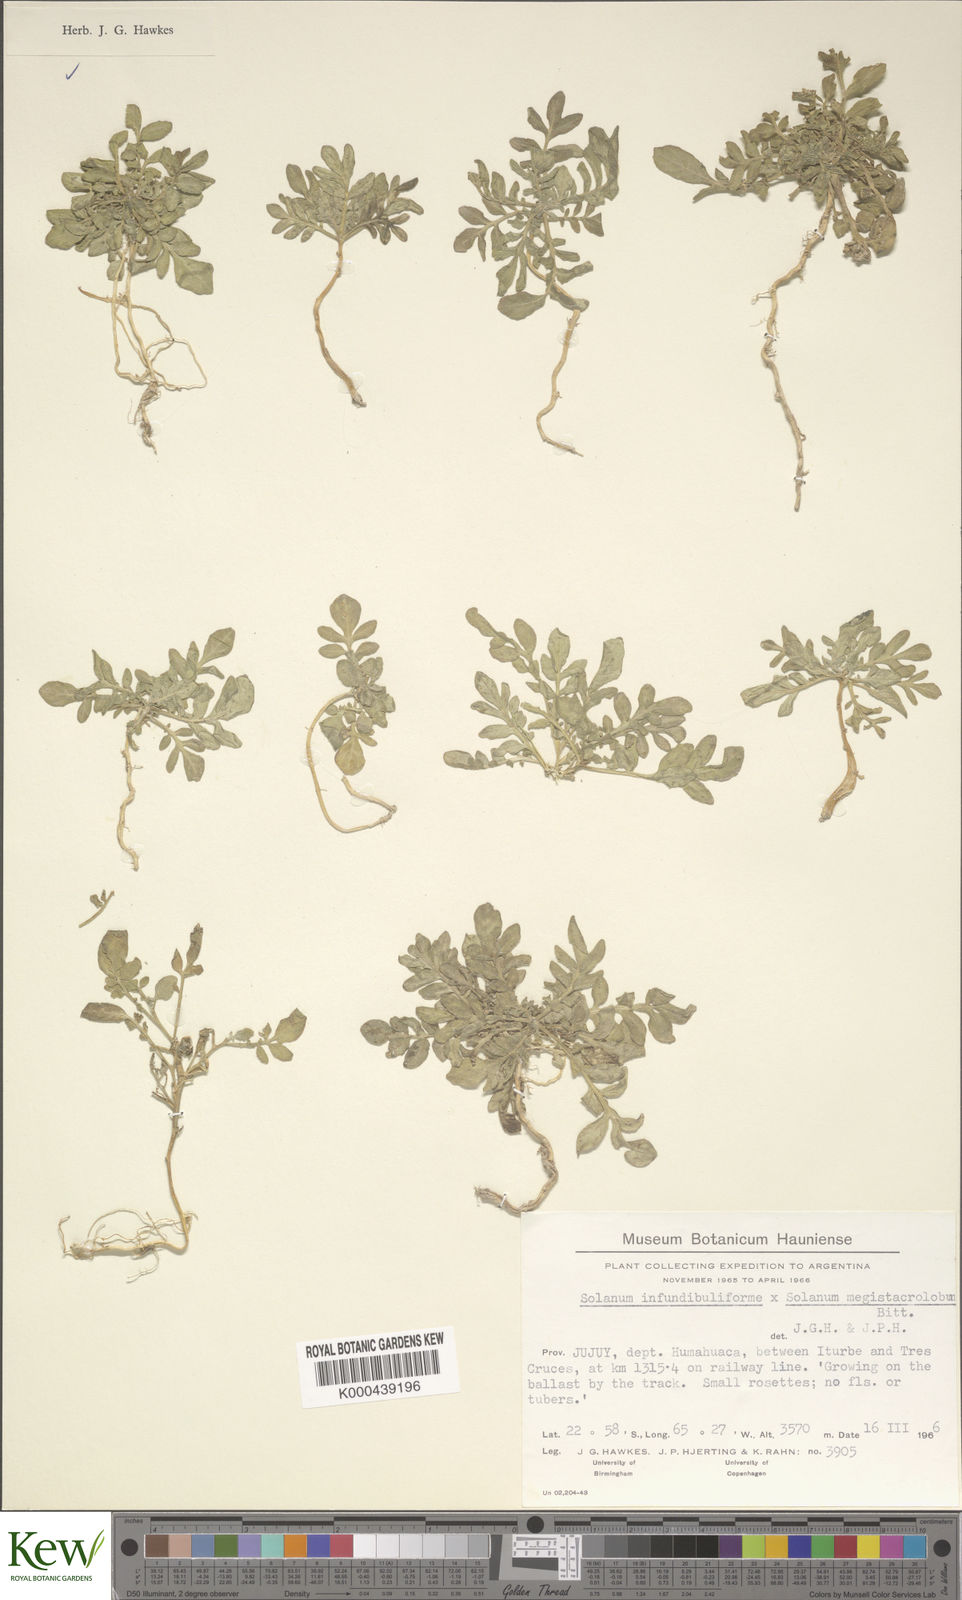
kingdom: Plantae
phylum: Tracheophyta
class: Magnoliopsida
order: Solanales
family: Solanaceae
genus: Solanum
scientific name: Solanum infundibuliforme
